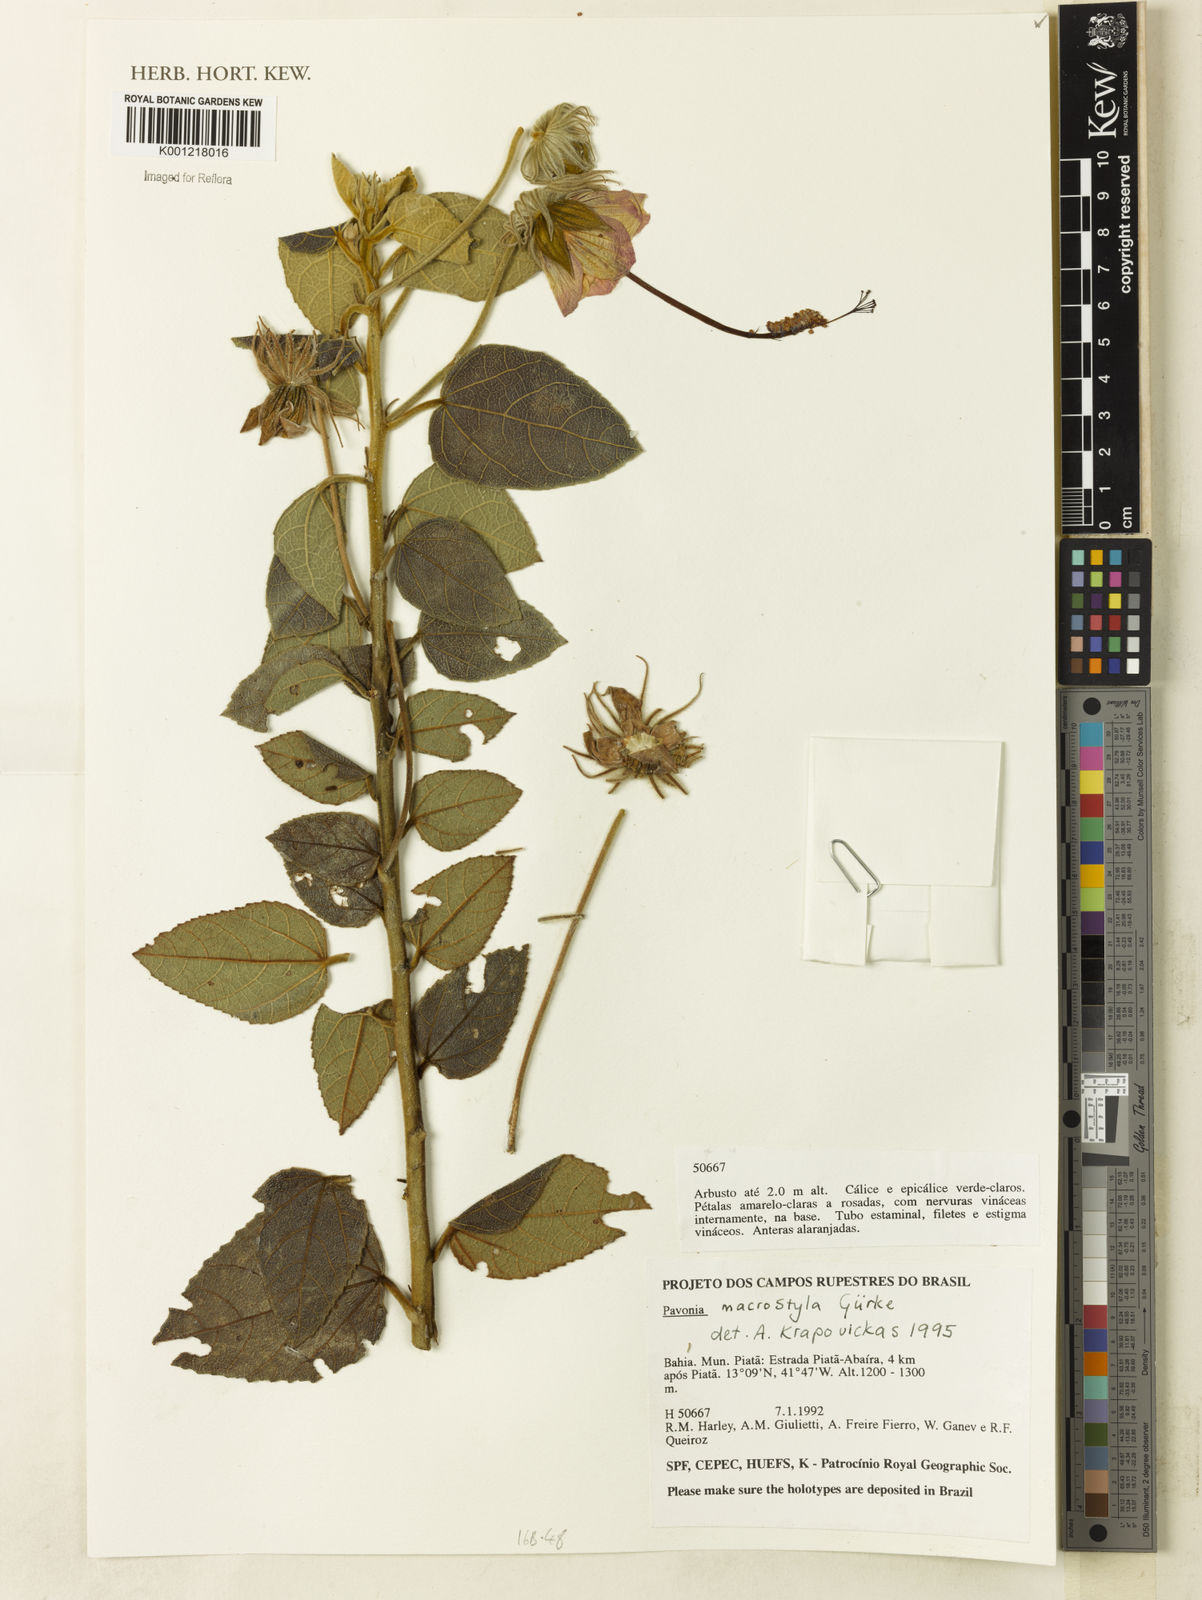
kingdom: Plantae
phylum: Tracheophyta
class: Magnoliopsida
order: Malvales
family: Malvaceae
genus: Pavonia
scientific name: Pavonia
